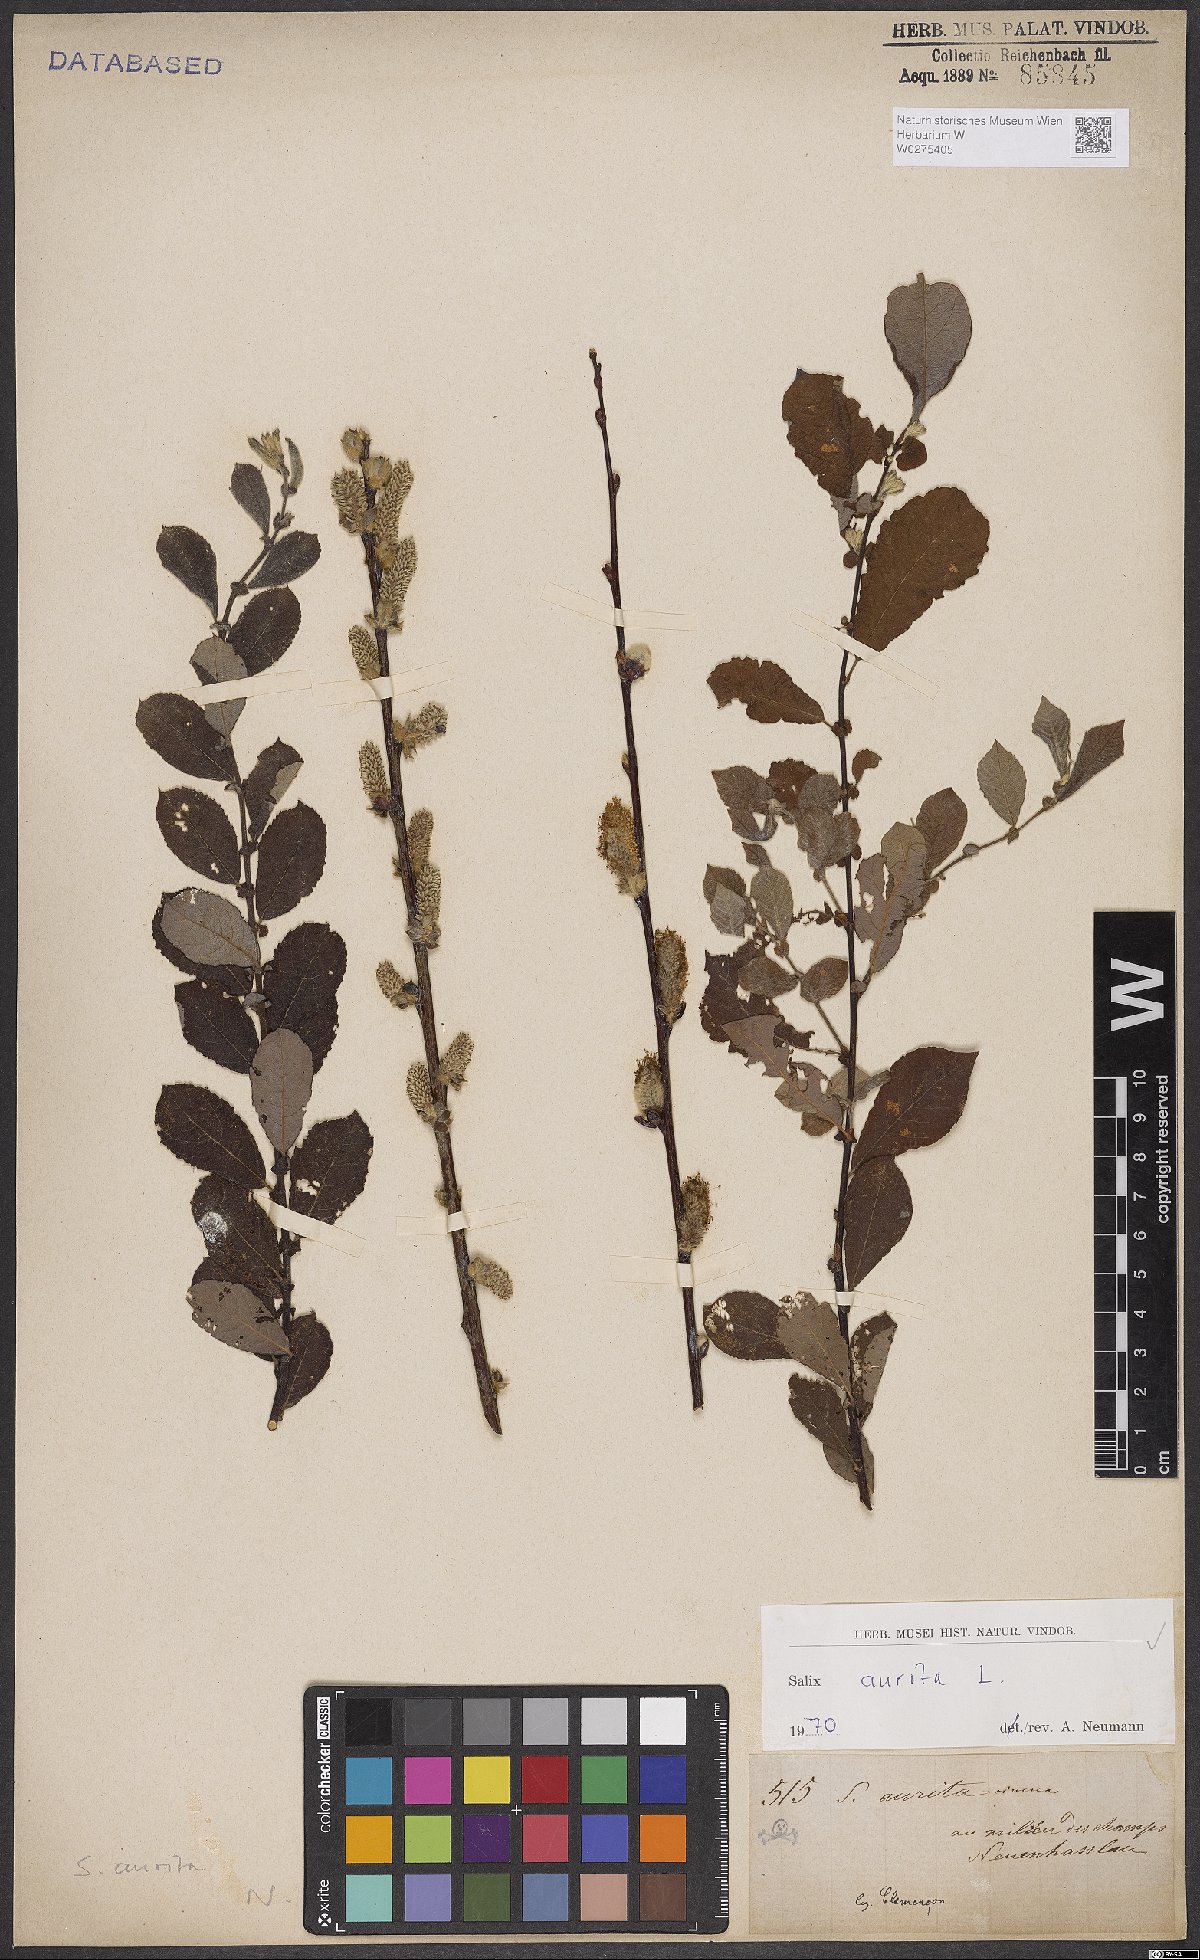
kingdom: Plantae
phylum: Tracheophyta
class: Magnoliopsida
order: Malpighiales
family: Salicaceae
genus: Salix
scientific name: Salix aurita
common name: Eared willow
